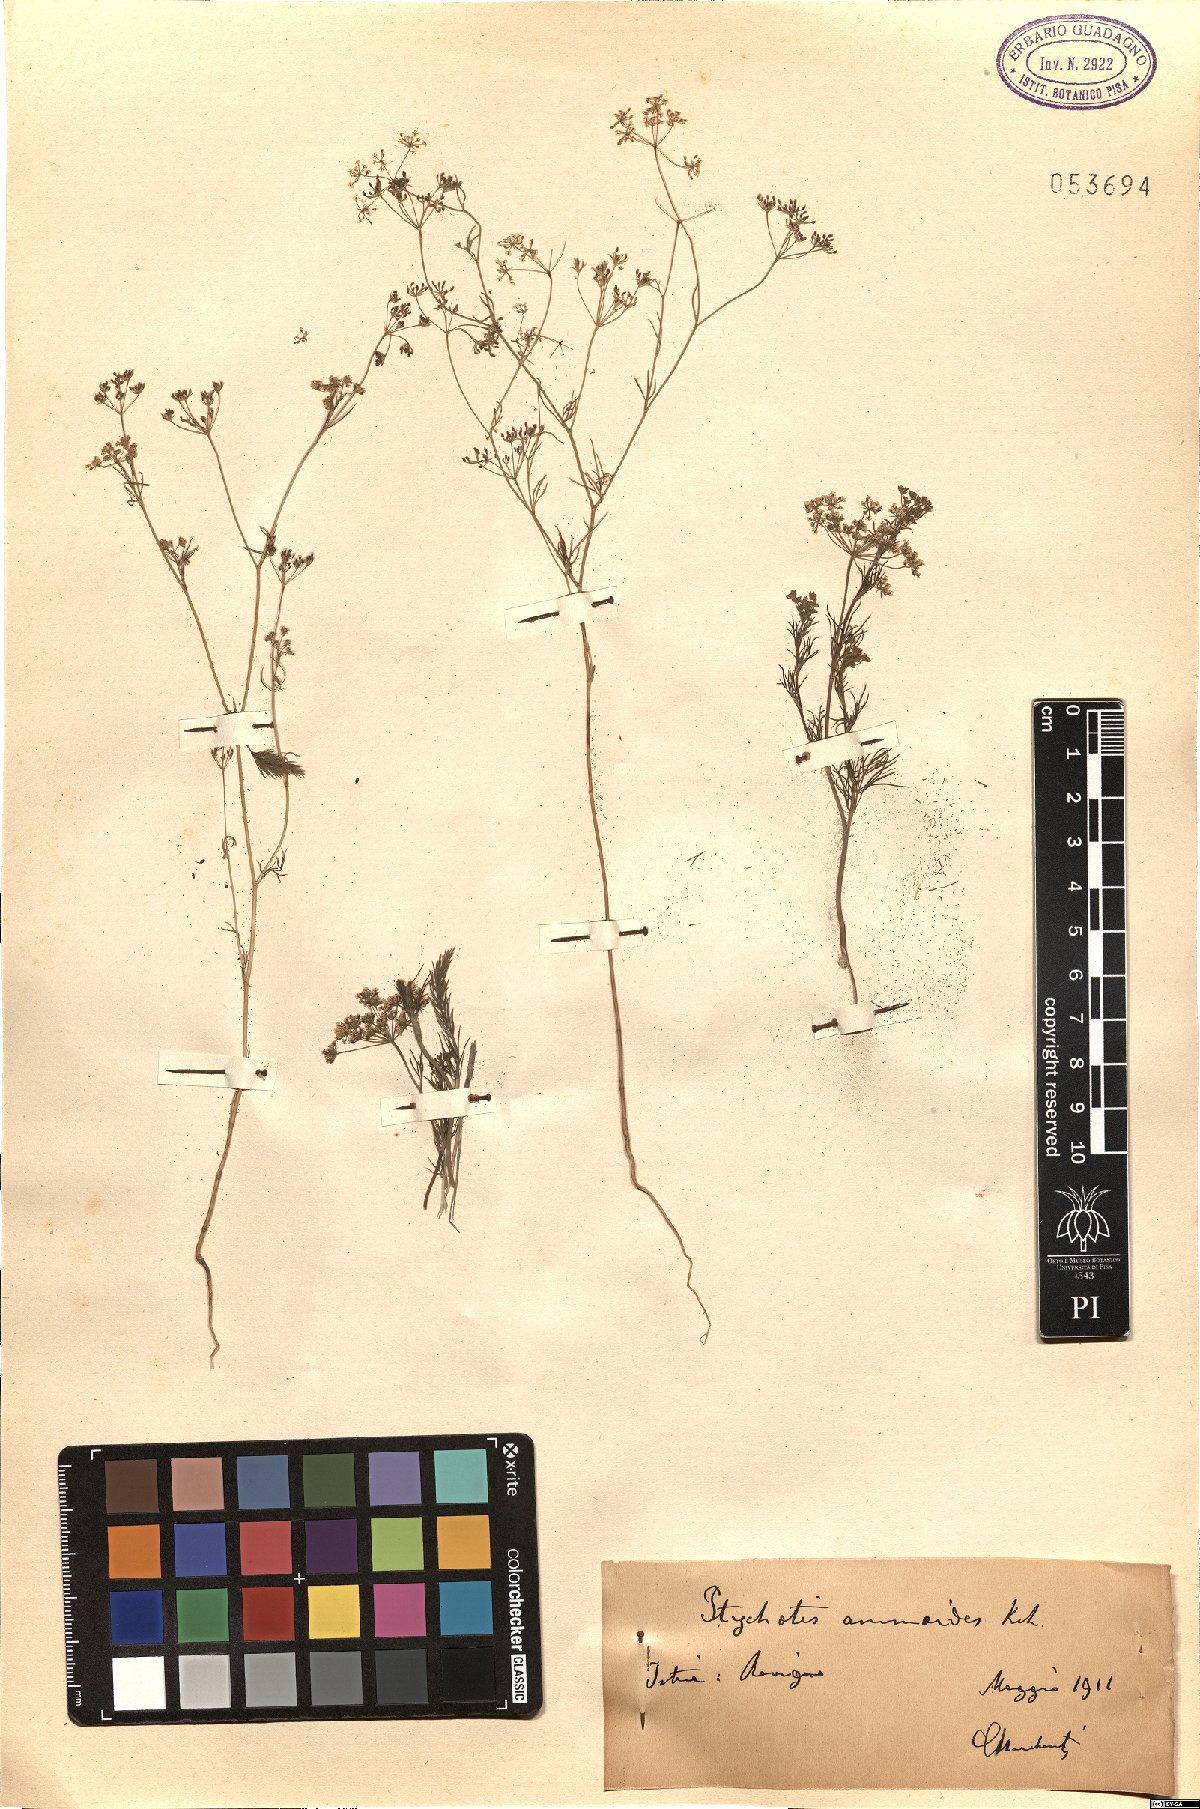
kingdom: Plantae
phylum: Tracheophyta
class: Magnoliopsida
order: Apiales
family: Apiaceae
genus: Ammoides
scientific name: Ammoides pusilla
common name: Cerfolium
